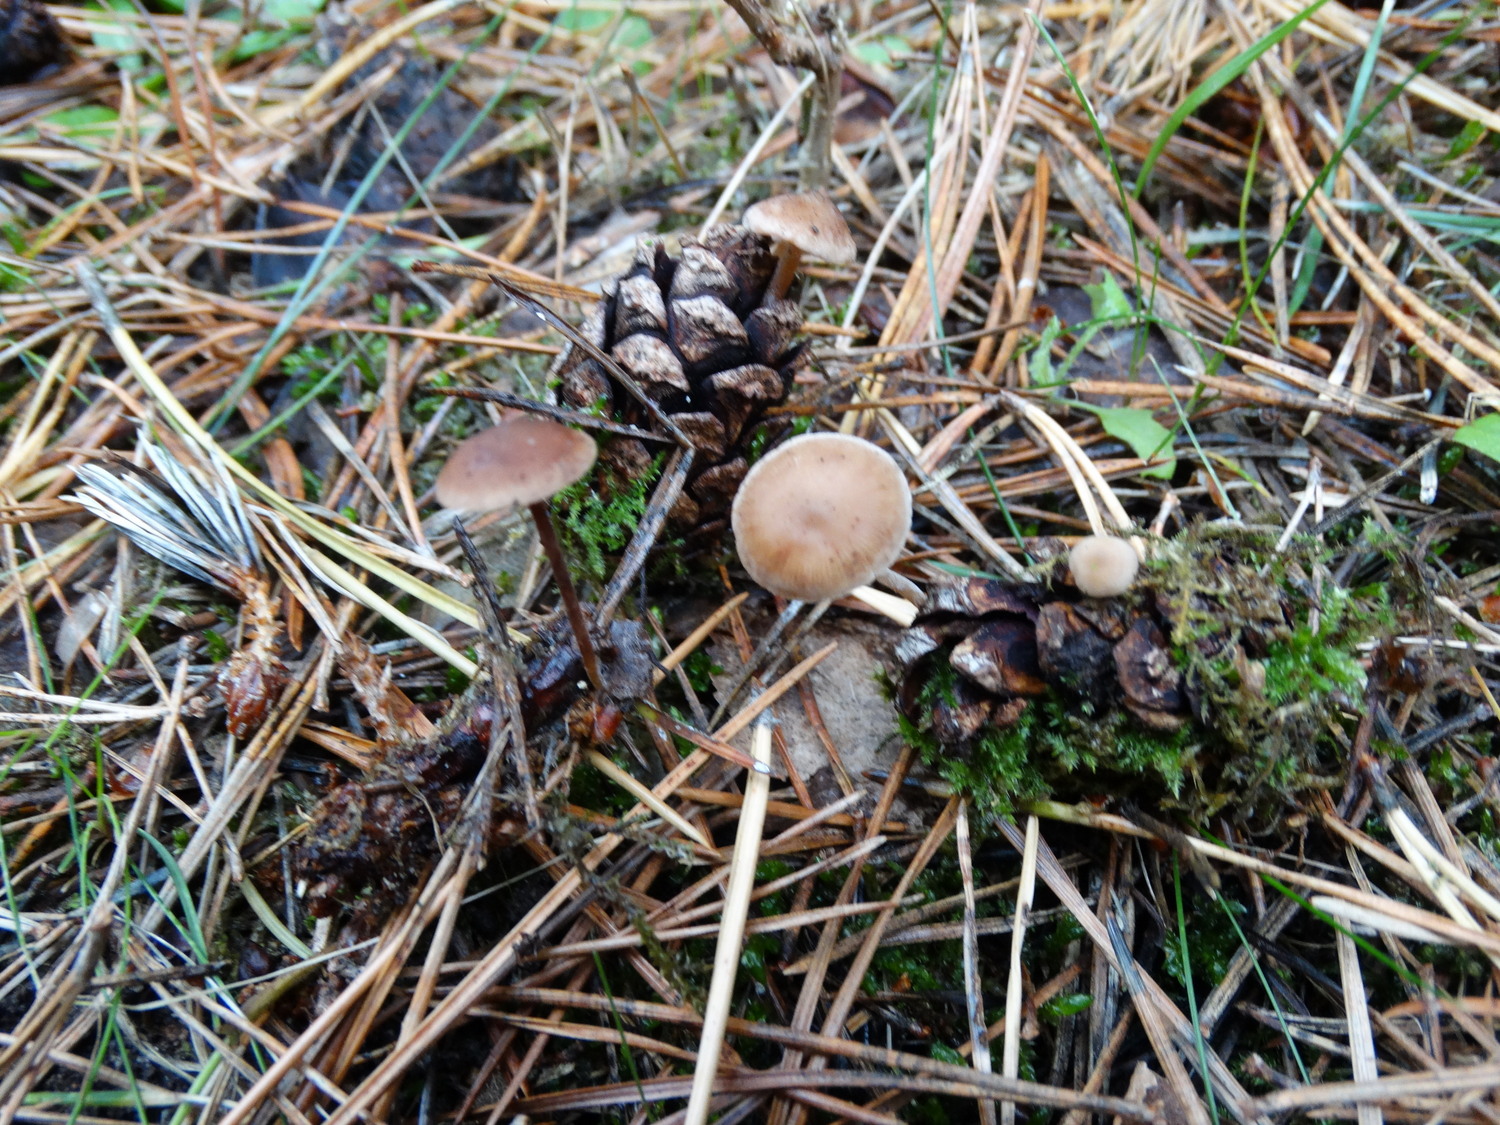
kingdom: Fungi
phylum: Basidiomycota
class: Agaricomycetes
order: Agaricales
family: Marasmiaceae
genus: Baeospora
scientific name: Baeospora myosura
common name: koglebruskhat
